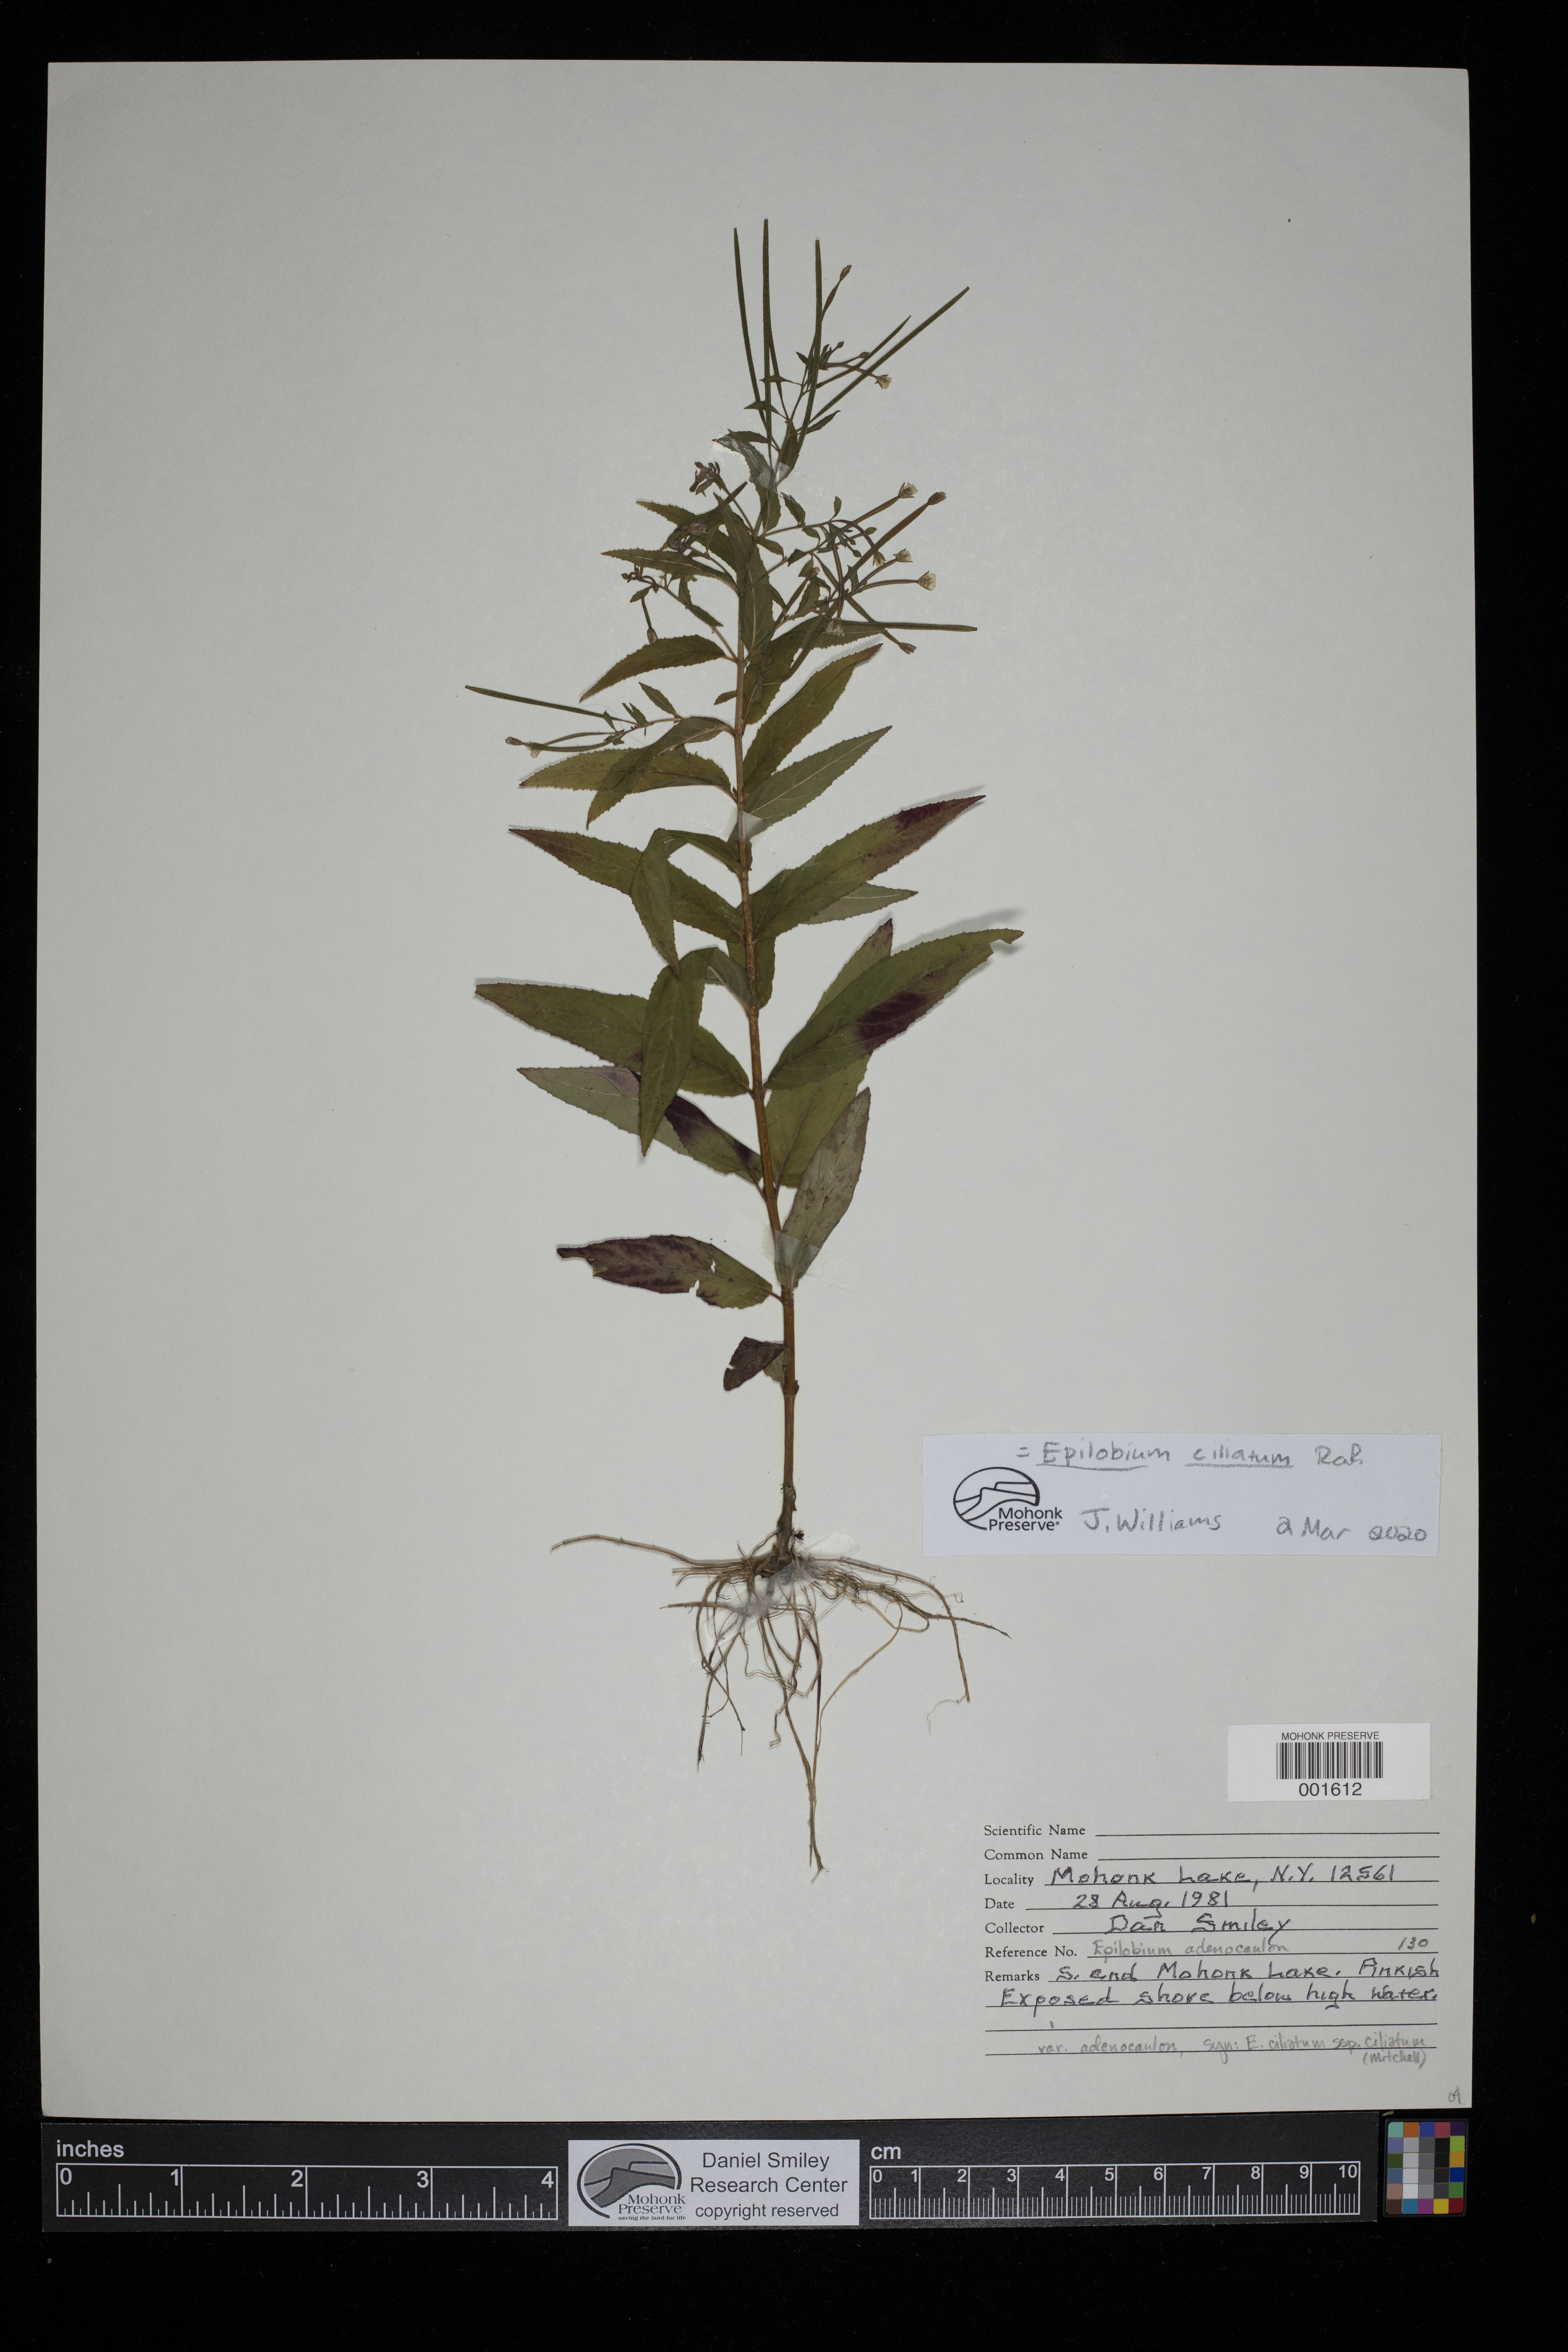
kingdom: Plantae
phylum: Tracheophyta
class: Magnoliopsida
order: Myrtales
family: Onagraceae
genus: Epilobium
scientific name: Epilobium ciliatum
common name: American willowherb
